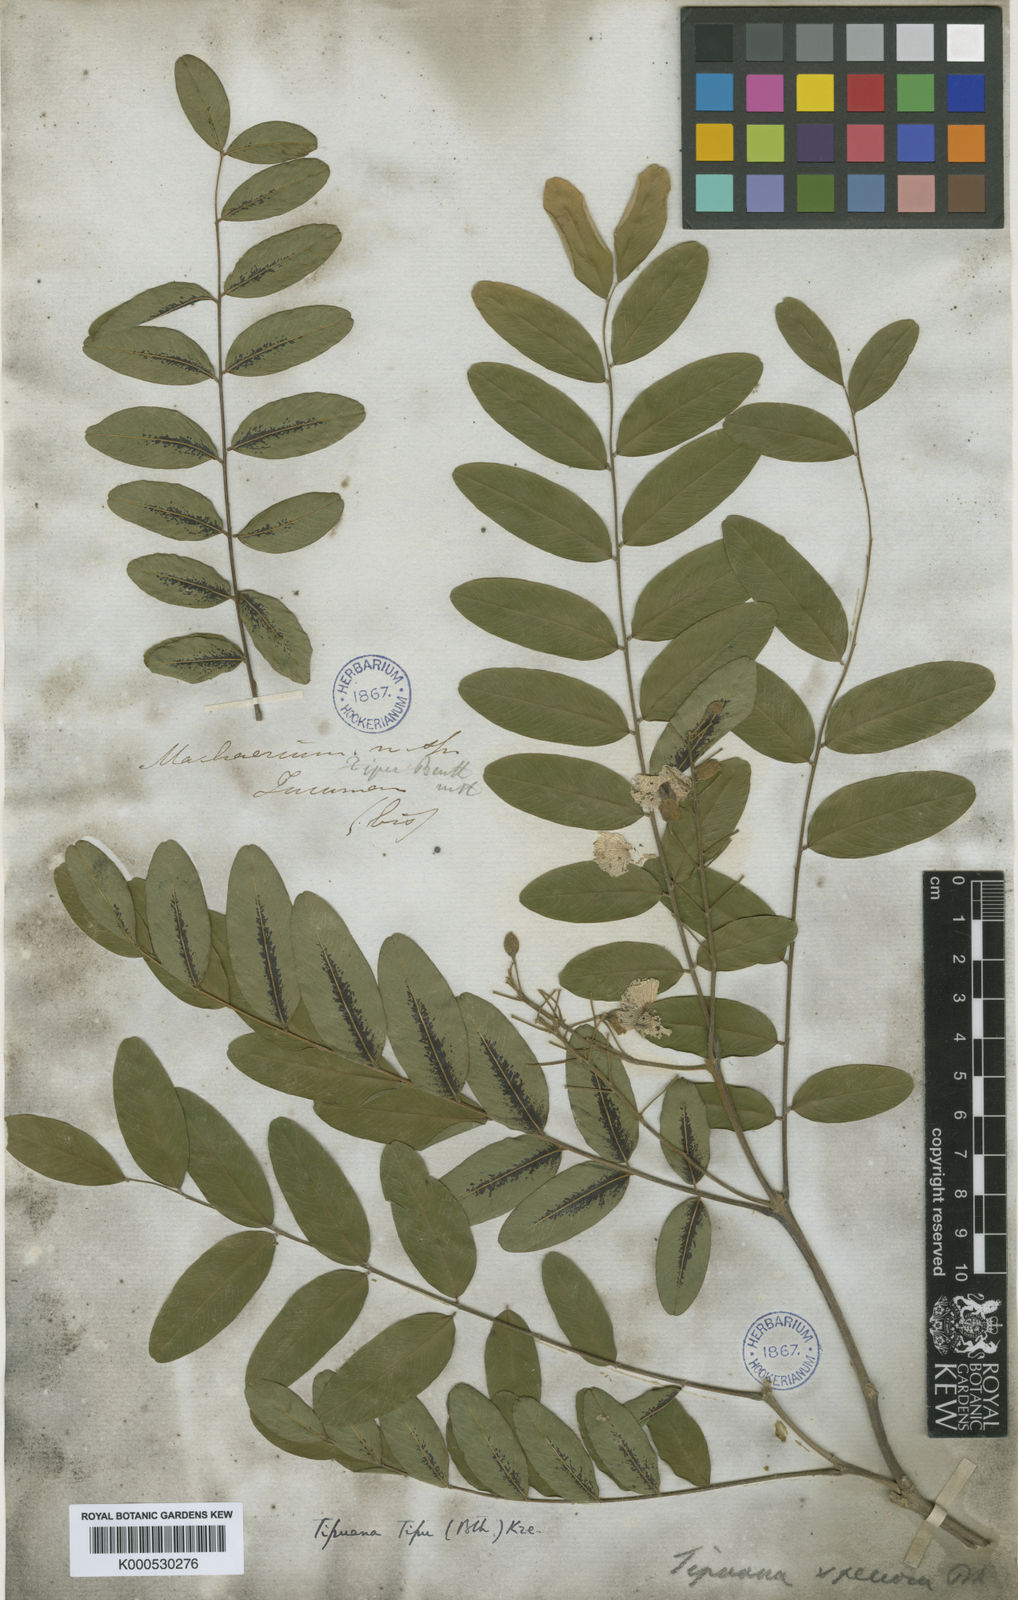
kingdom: Plantae
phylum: Tracheophyta
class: Magnoliopsida
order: Fabales
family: Fabaceae
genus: Tipuana
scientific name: Tipuana tipu
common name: Tiputree
